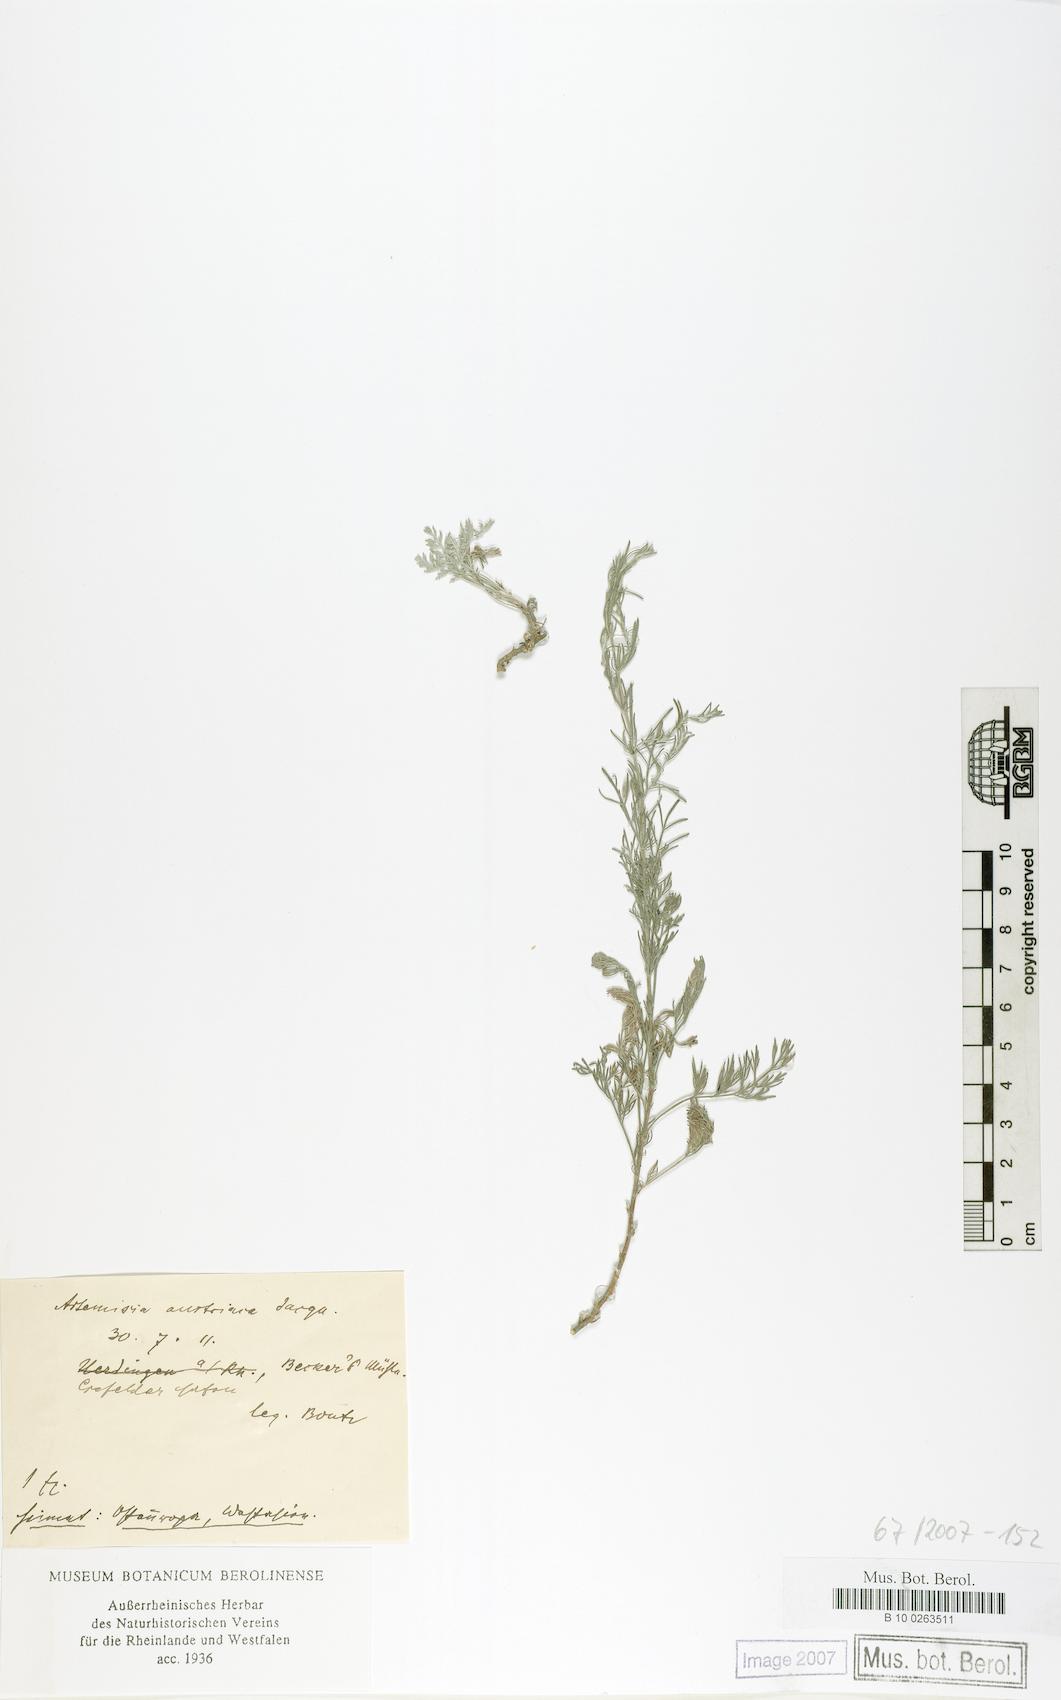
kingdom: Plantae
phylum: Tracheophyta
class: Magnoliopsida
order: Asterales
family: Asteraceae
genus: Artemisia
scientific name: Artemisia austriaca
